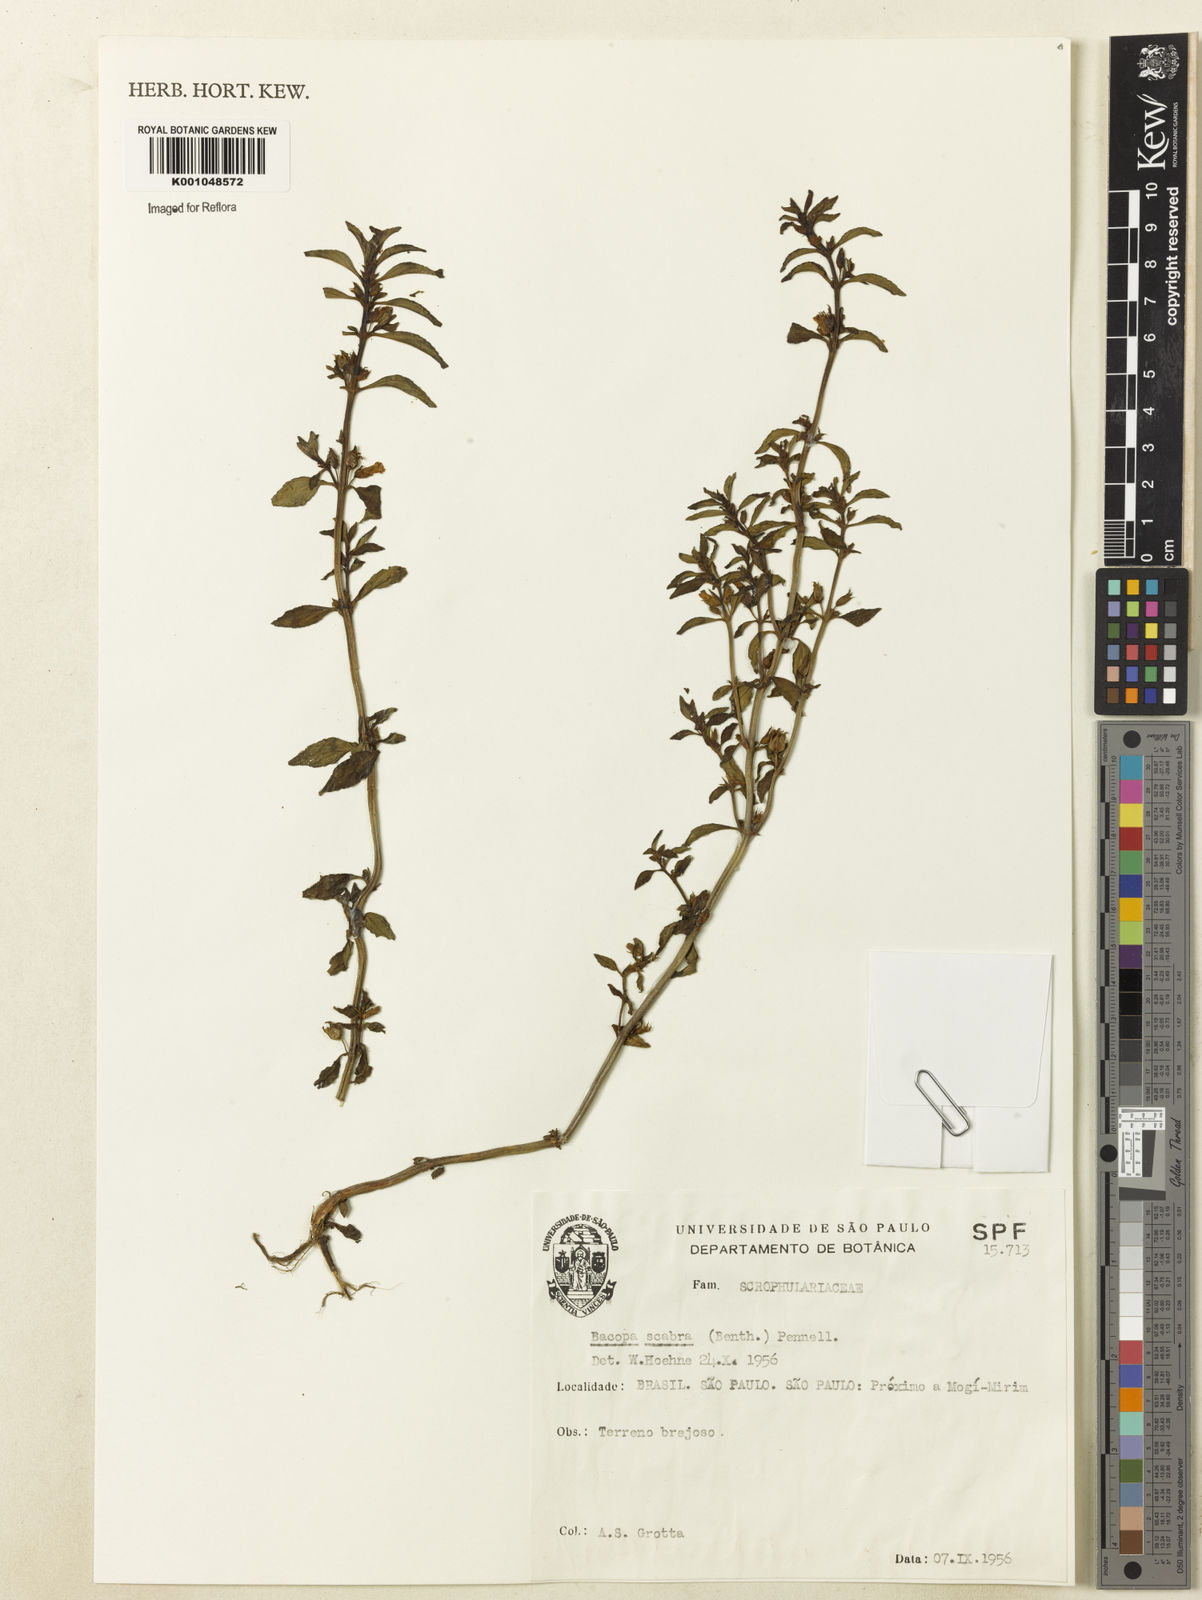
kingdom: Plantae
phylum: Tracheophyta
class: Magnoliopsida
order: Lamiales
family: Plantaginaceae
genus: Bacopa
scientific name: Bacopa scabra
